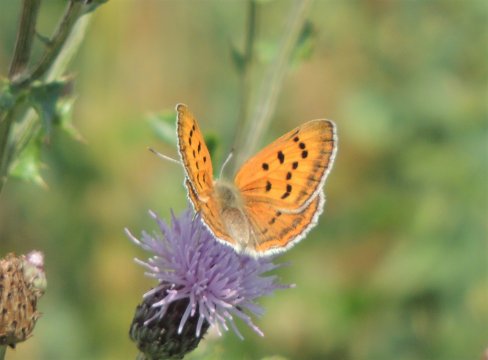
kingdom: Animalia
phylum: Arthropoda
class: Insecta
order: Lepidoptera
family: Sesiidae
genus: Sesia
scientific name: Sesia Lycaena rubidus
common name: Ruddy Copper
